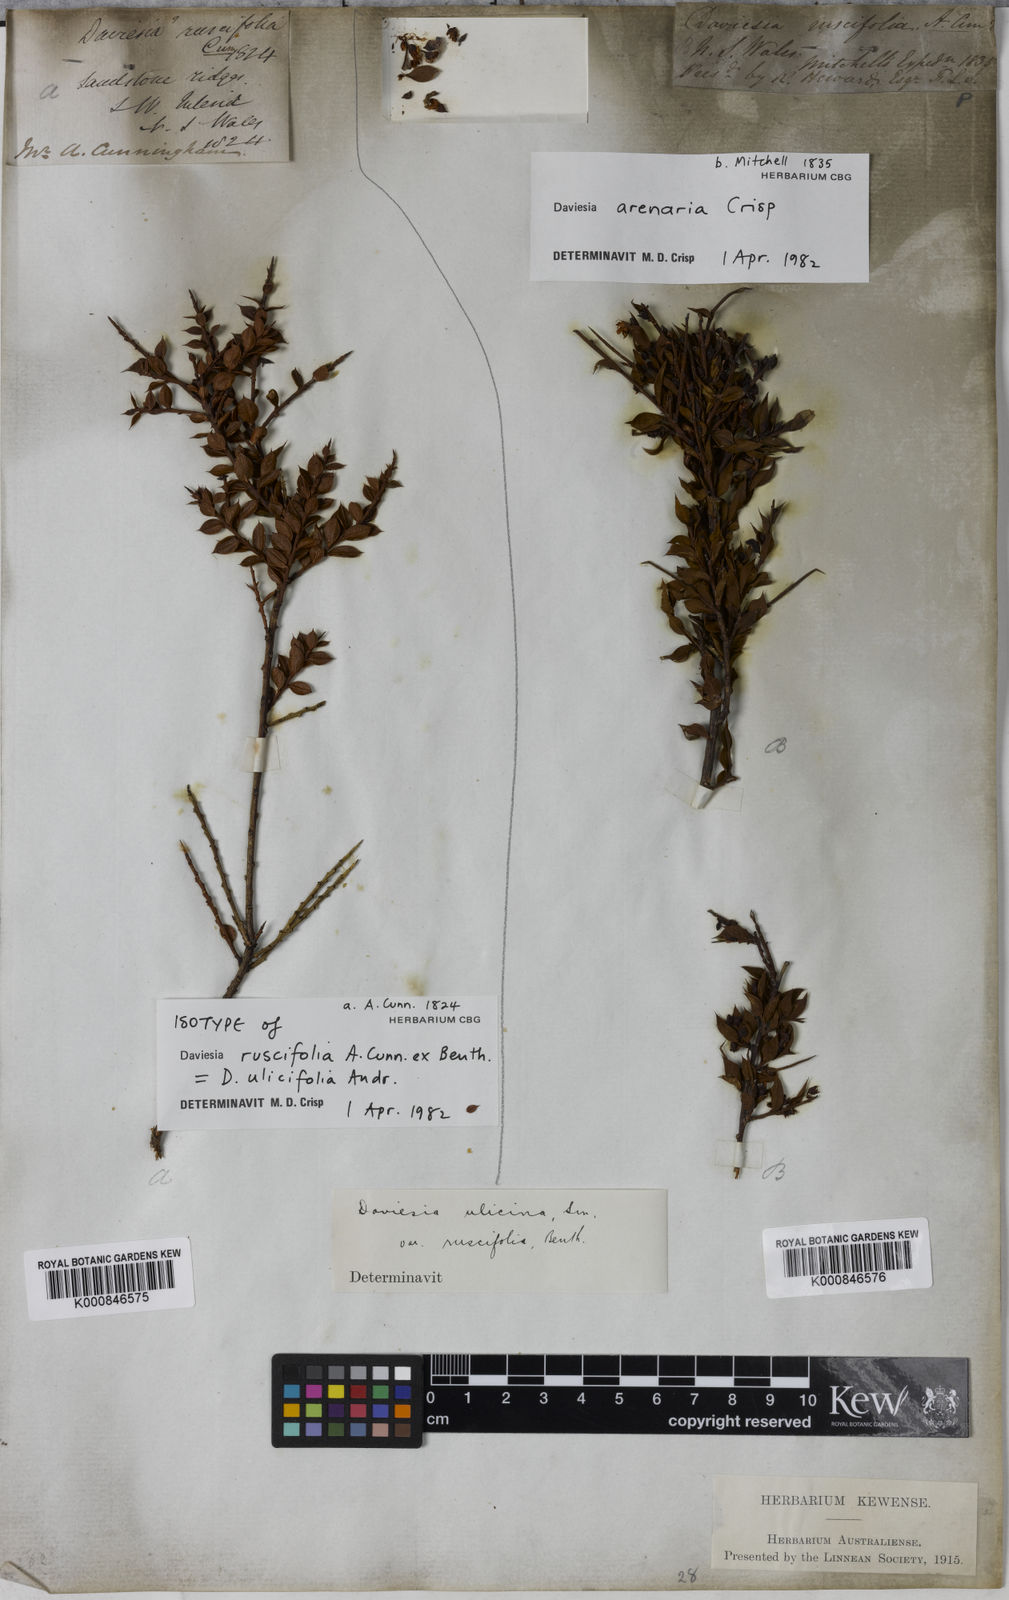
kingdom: Plantae
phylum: Tracheophyta
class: Magnoliopsida
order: Fabales
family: Fabaceae
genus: Daviesia
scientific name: Daviesia ulicifolia
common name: Gorse bitter-pea
